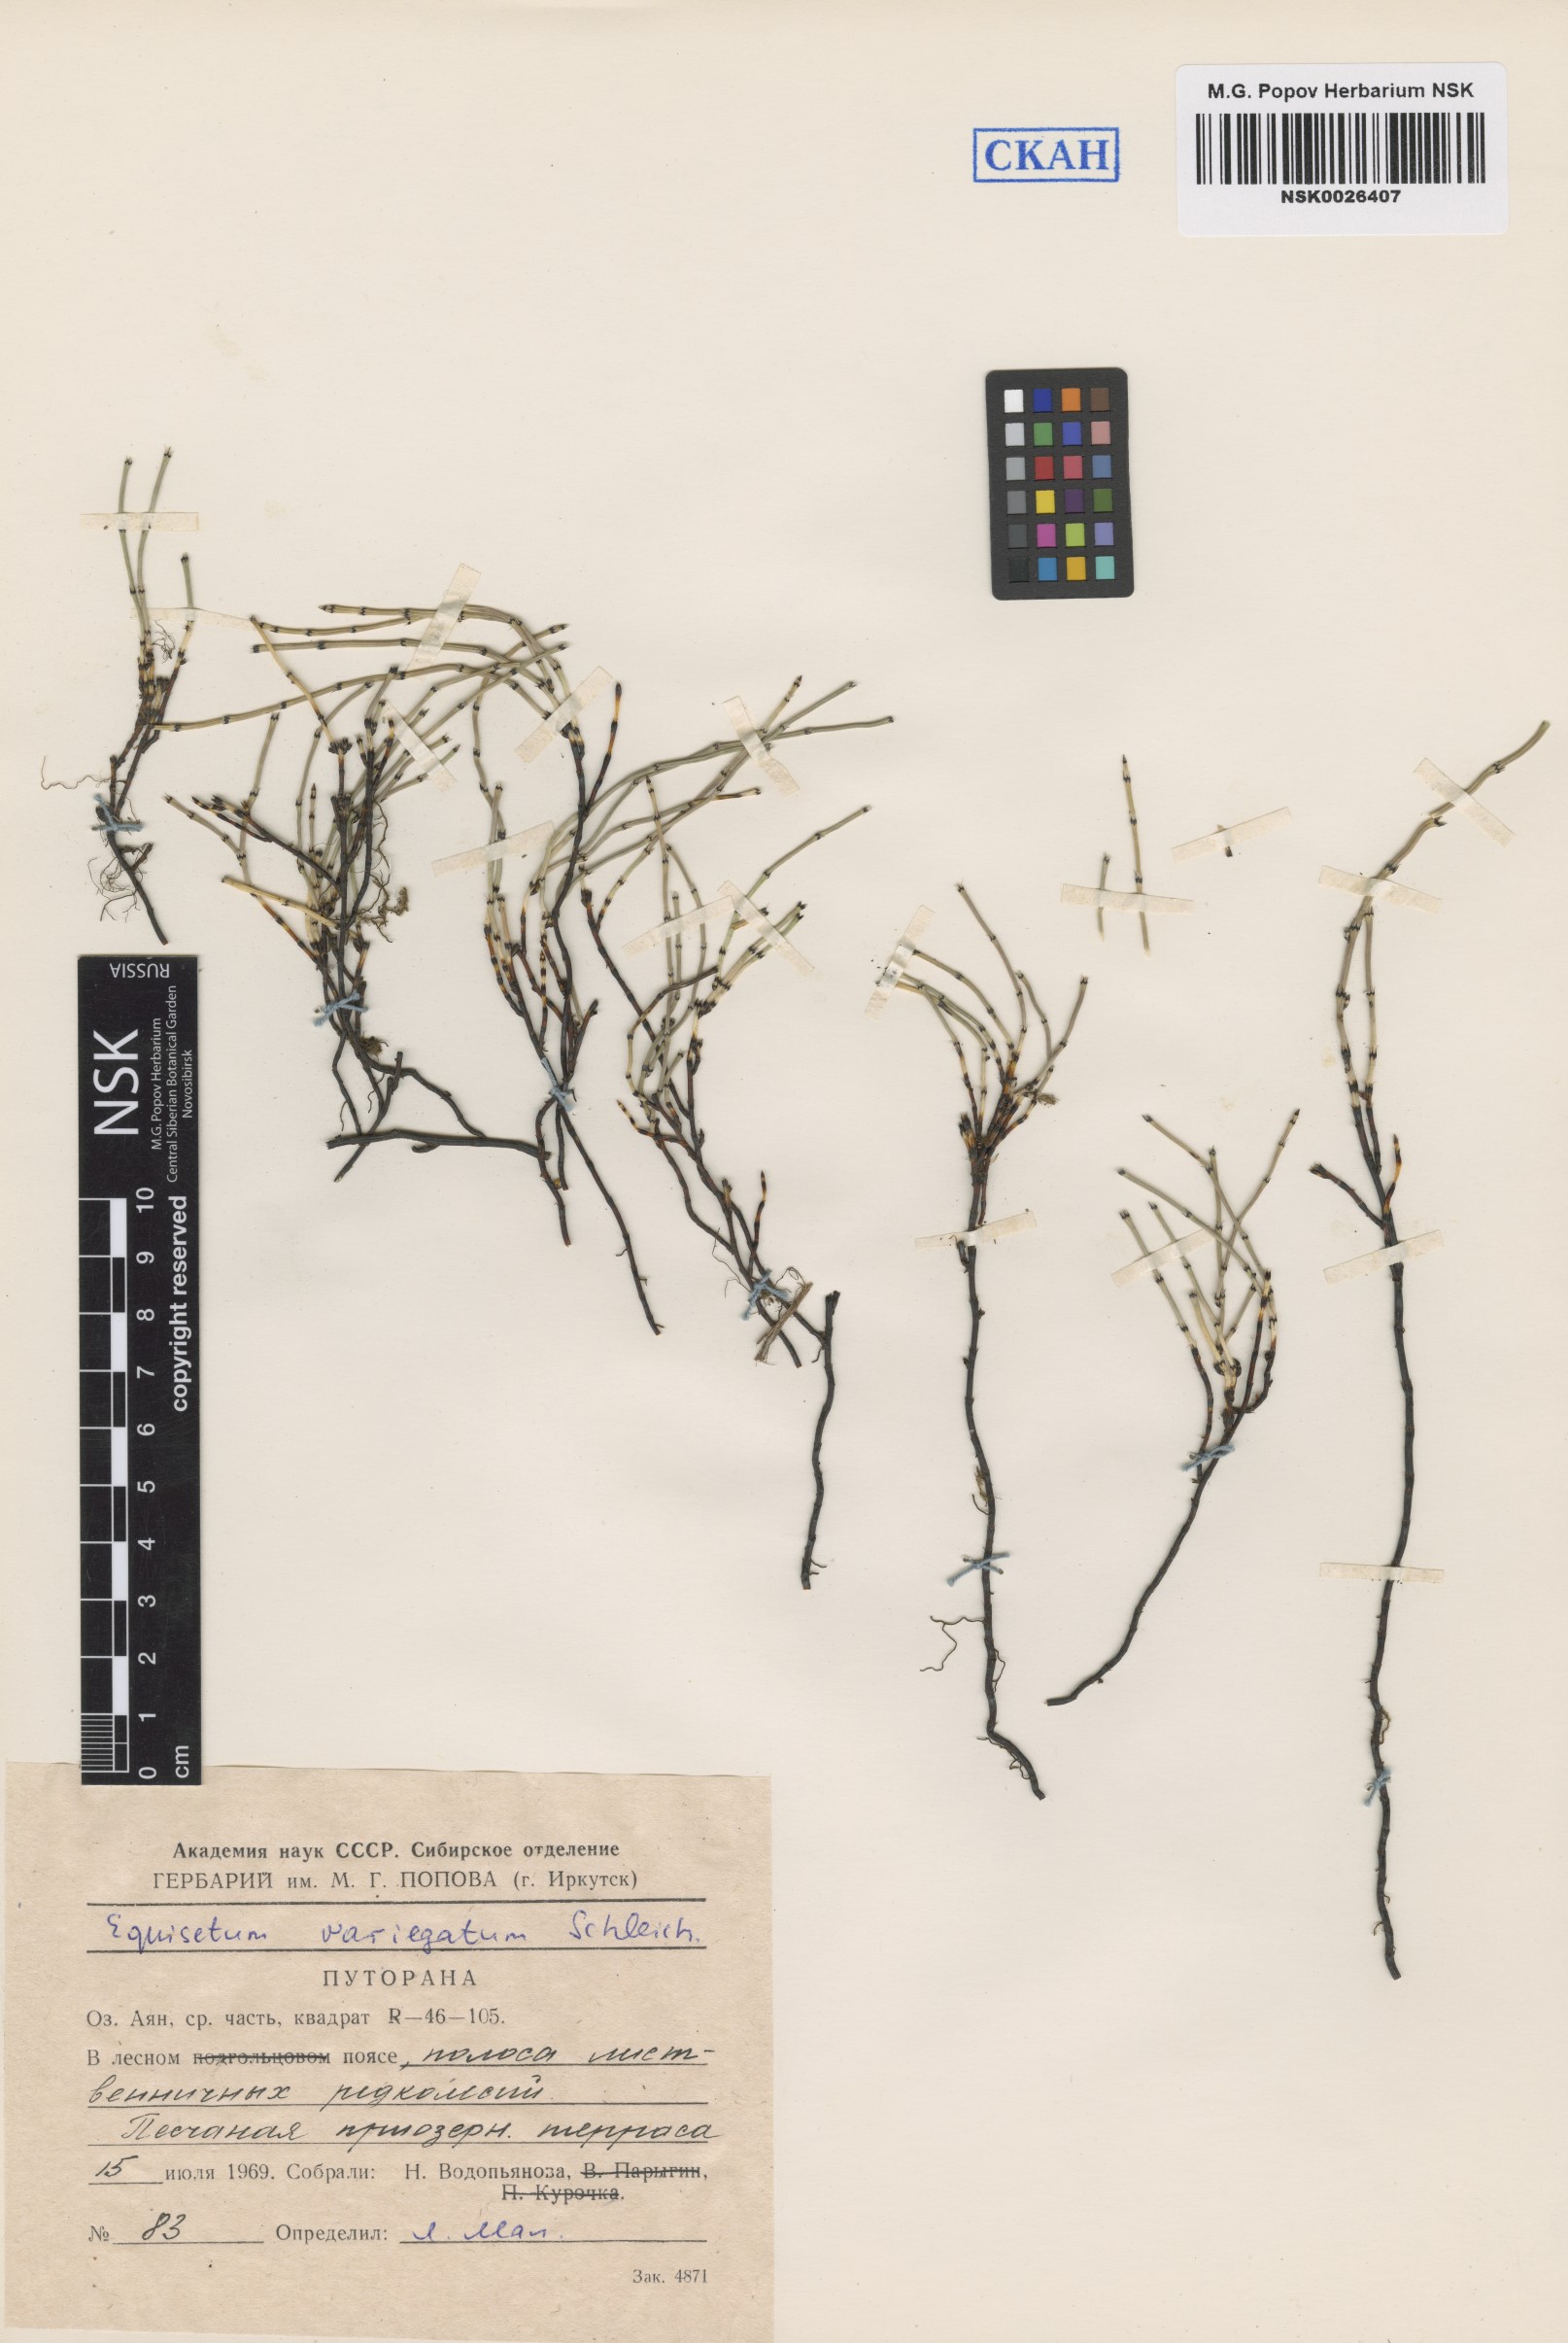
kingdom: Plantae
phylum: Tracheophyta
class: Polypodiopsida
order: Equisetales
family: Equisetaceae
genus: Equisetum
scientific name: Equisetum variegatum
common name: Variegated horsetail
